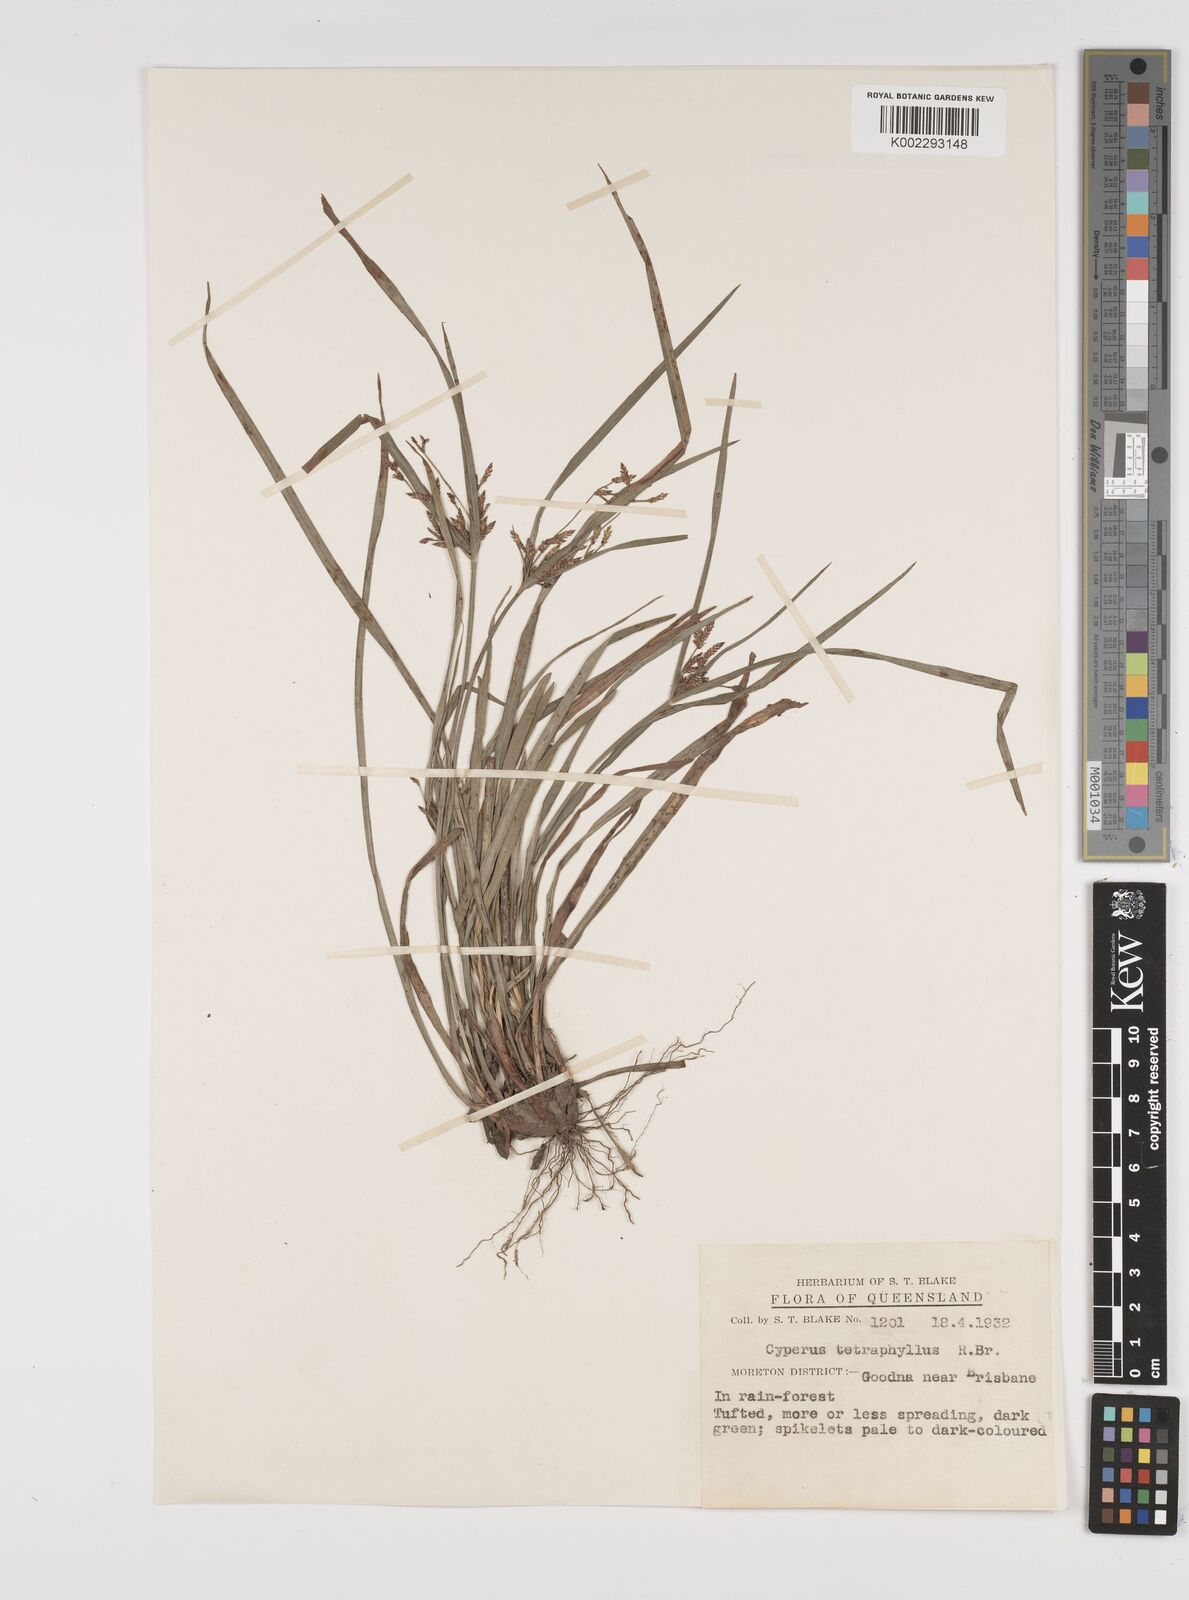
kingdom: Plantae
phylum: Tracheophyta
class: Liliopsida
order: Poales
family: Cyperaceae
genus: Cyperus
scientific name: Cyperus tetraphyllus
